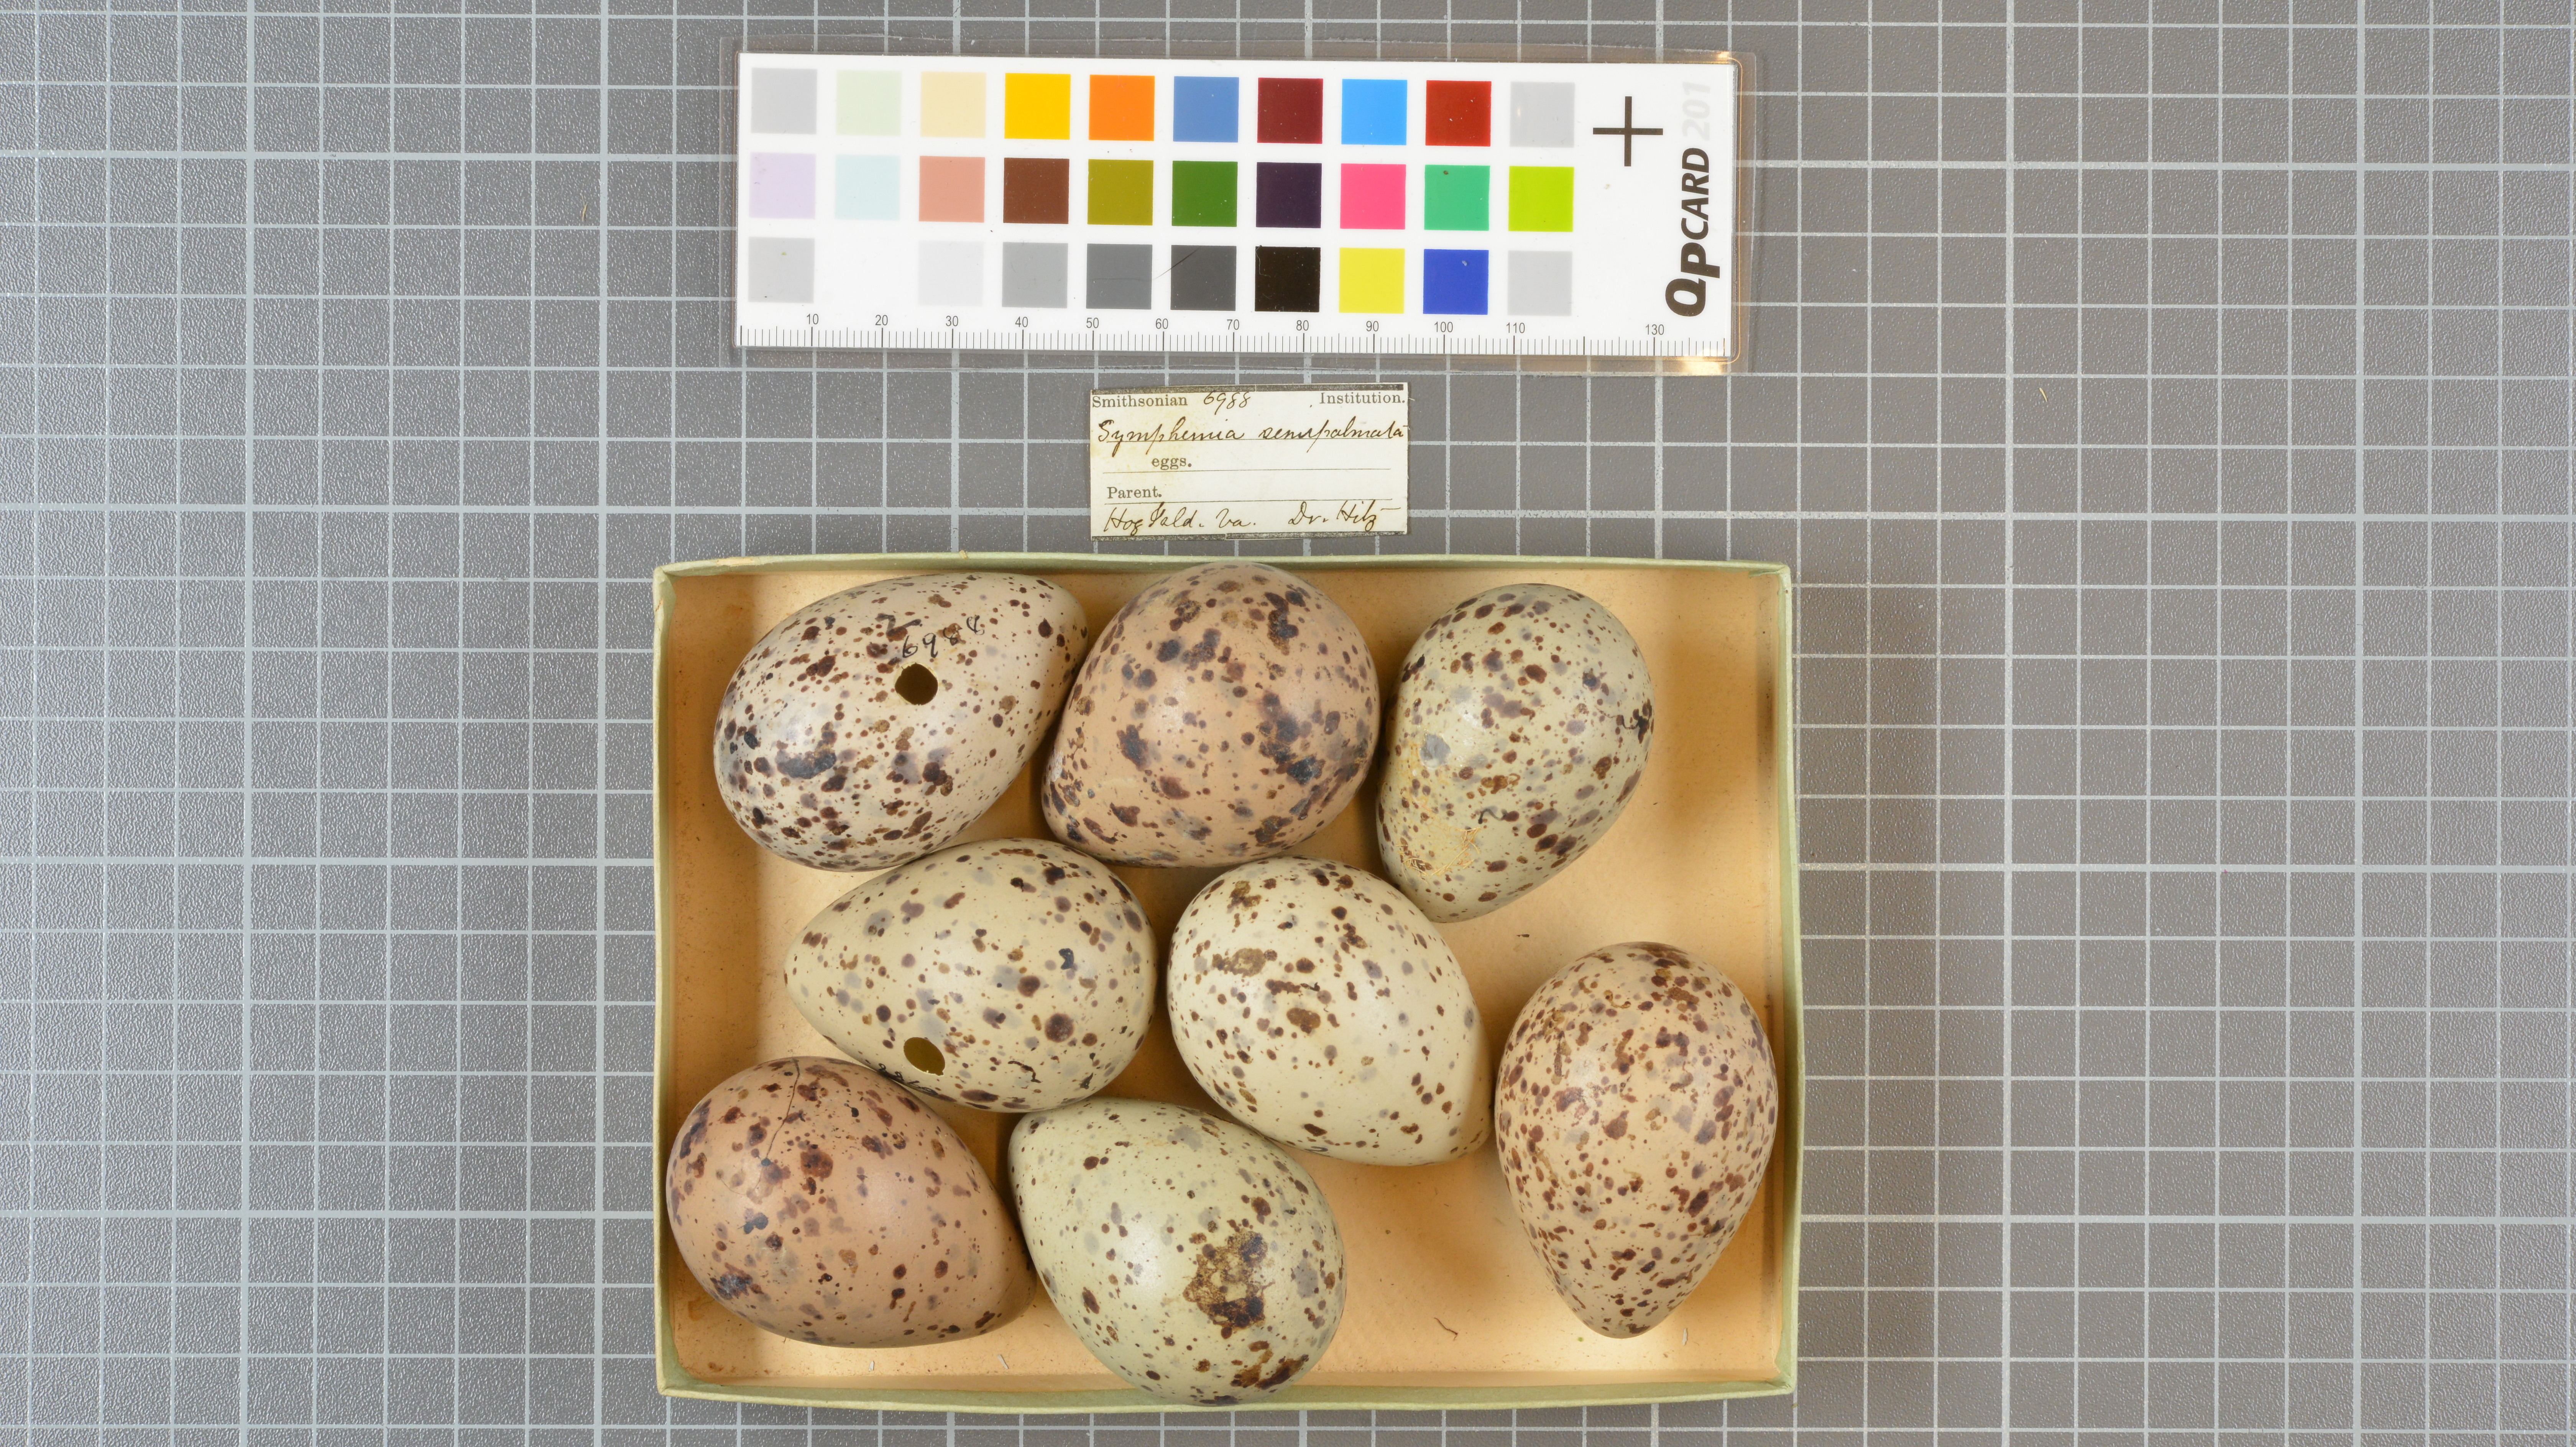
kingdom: Animalia
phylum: Chordata
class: Aves
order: Charadriiformes
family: Scolopacidae
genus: Tringa
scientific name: Tringa semipalmata
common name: Willet
